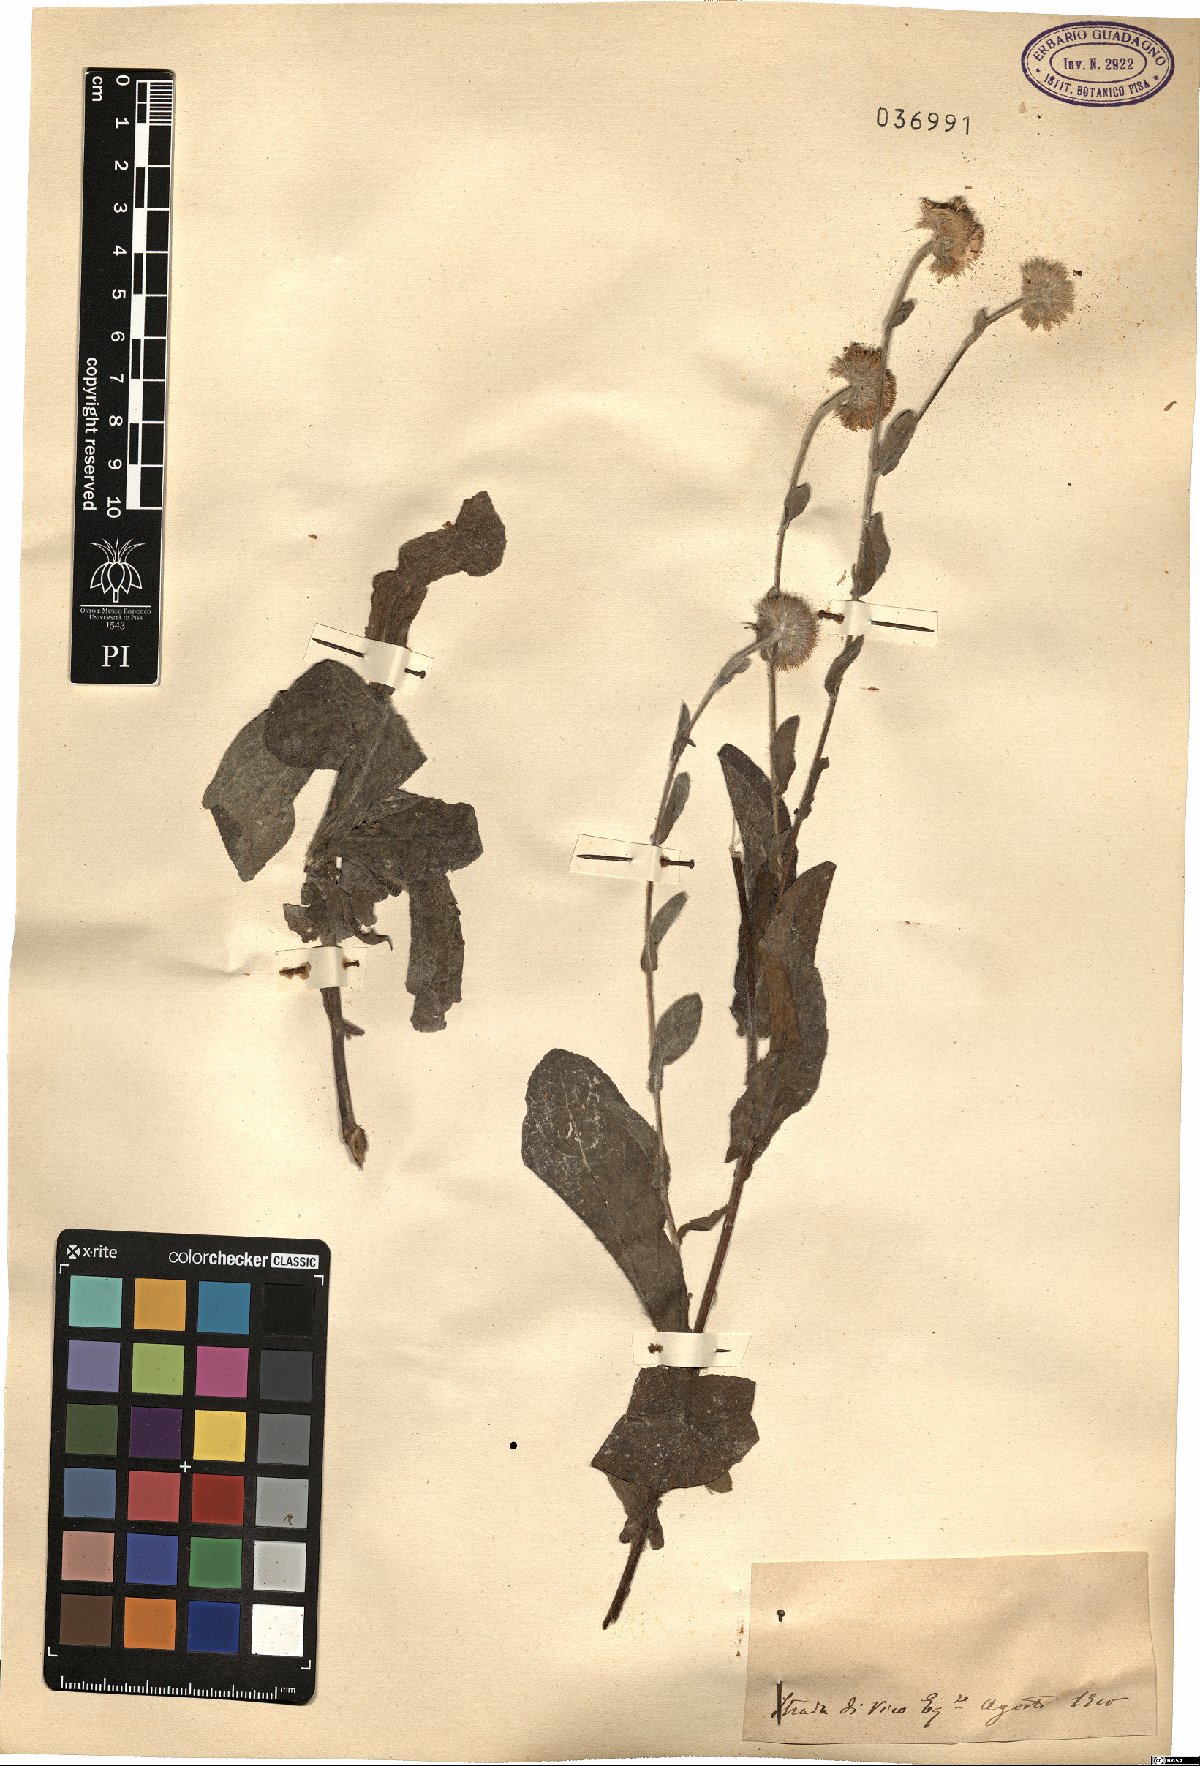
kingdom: Plantae
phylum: Tracheophyta
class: Magnoliopsida
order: Asterales
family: Asteraceae
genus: Pulicaria
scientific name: Pulicaria
